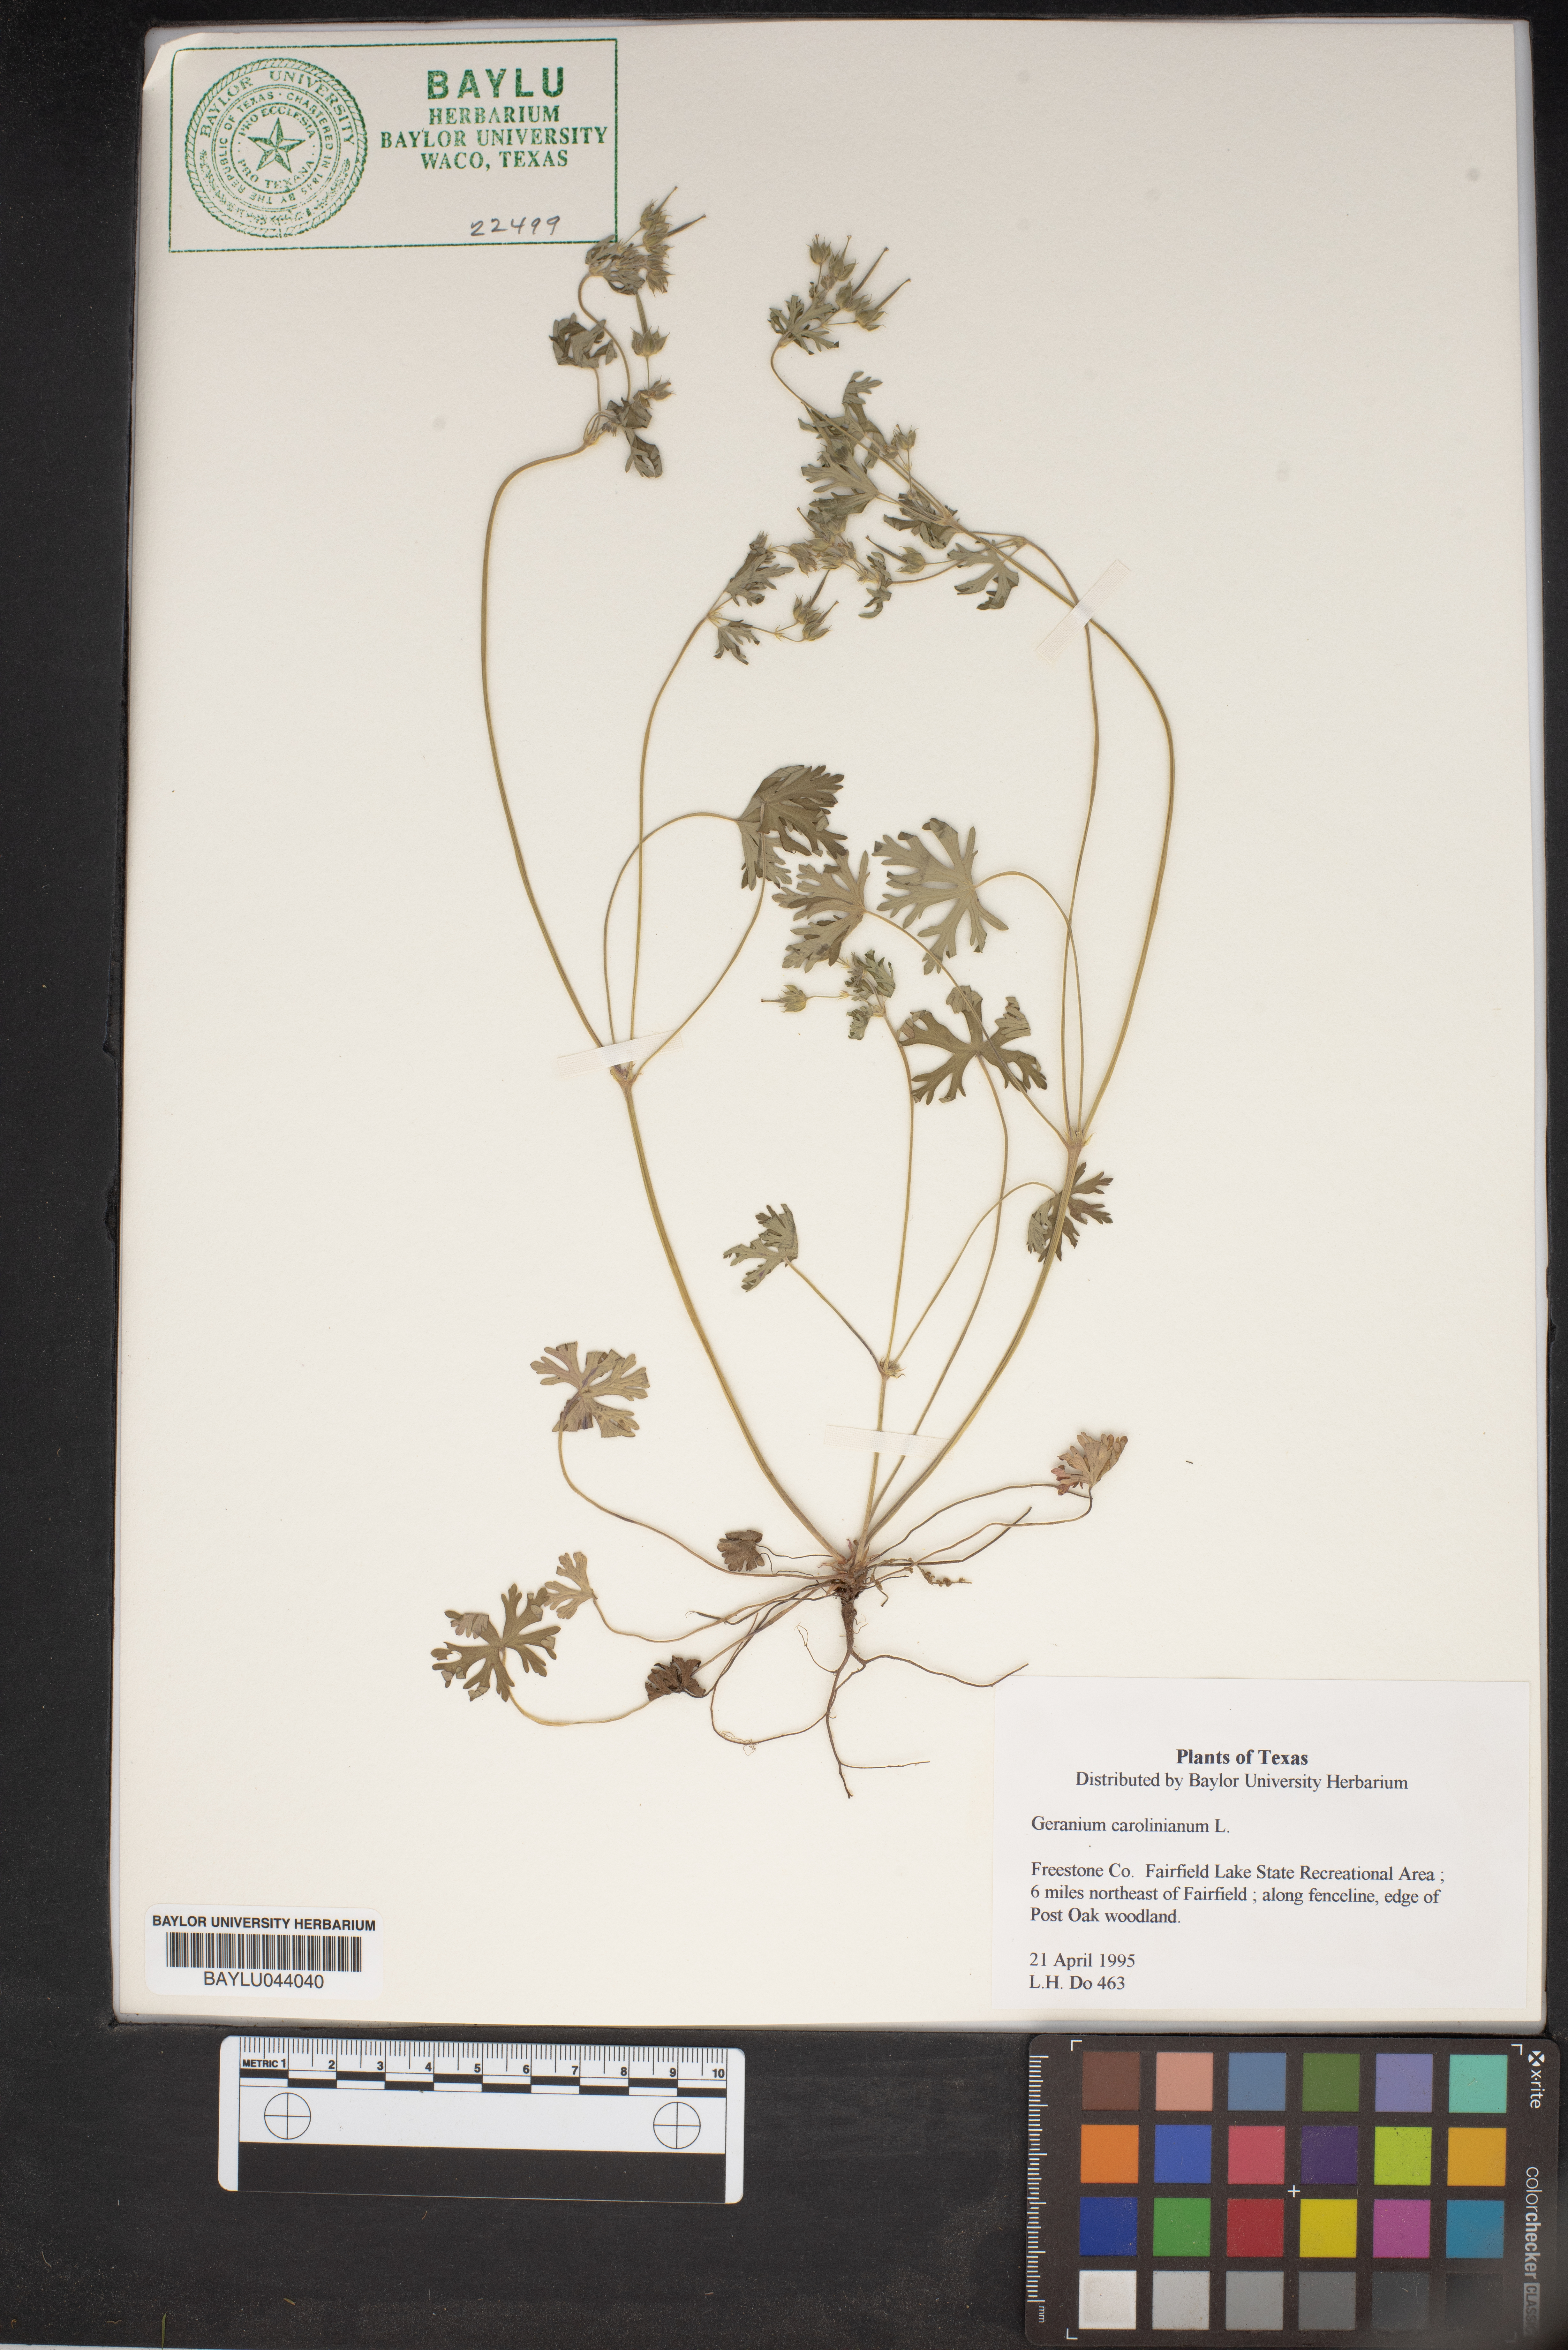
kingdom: Plantae
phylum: Tracheophyta
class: Magnoliopsida
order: Geraniales
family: Geraniaceae
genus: Geranium
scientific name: Geranium carolinianum
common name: Carolina crane's-bill
